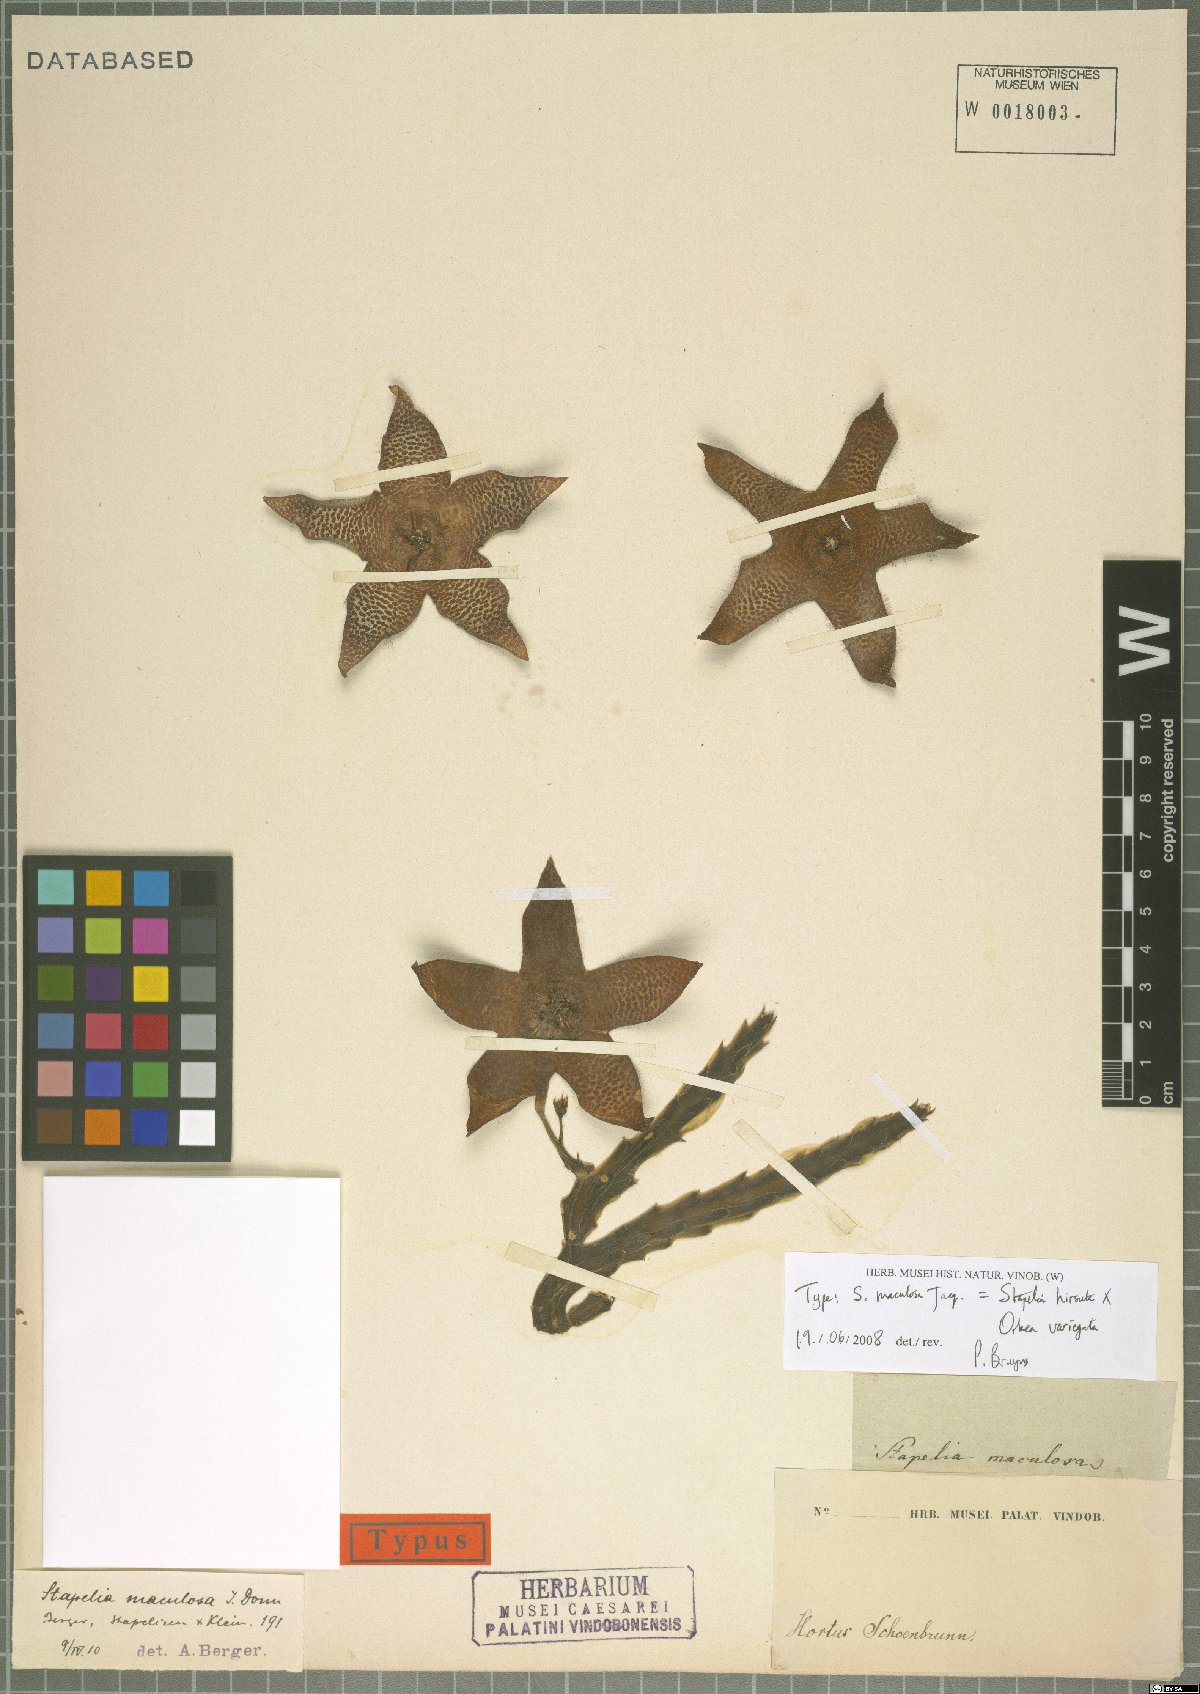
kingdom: Plantae
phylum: Tracheophyta
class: Magnoliopsida
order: Gentianales
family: Asclepiadaceae
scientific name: Asclepiadaceae
